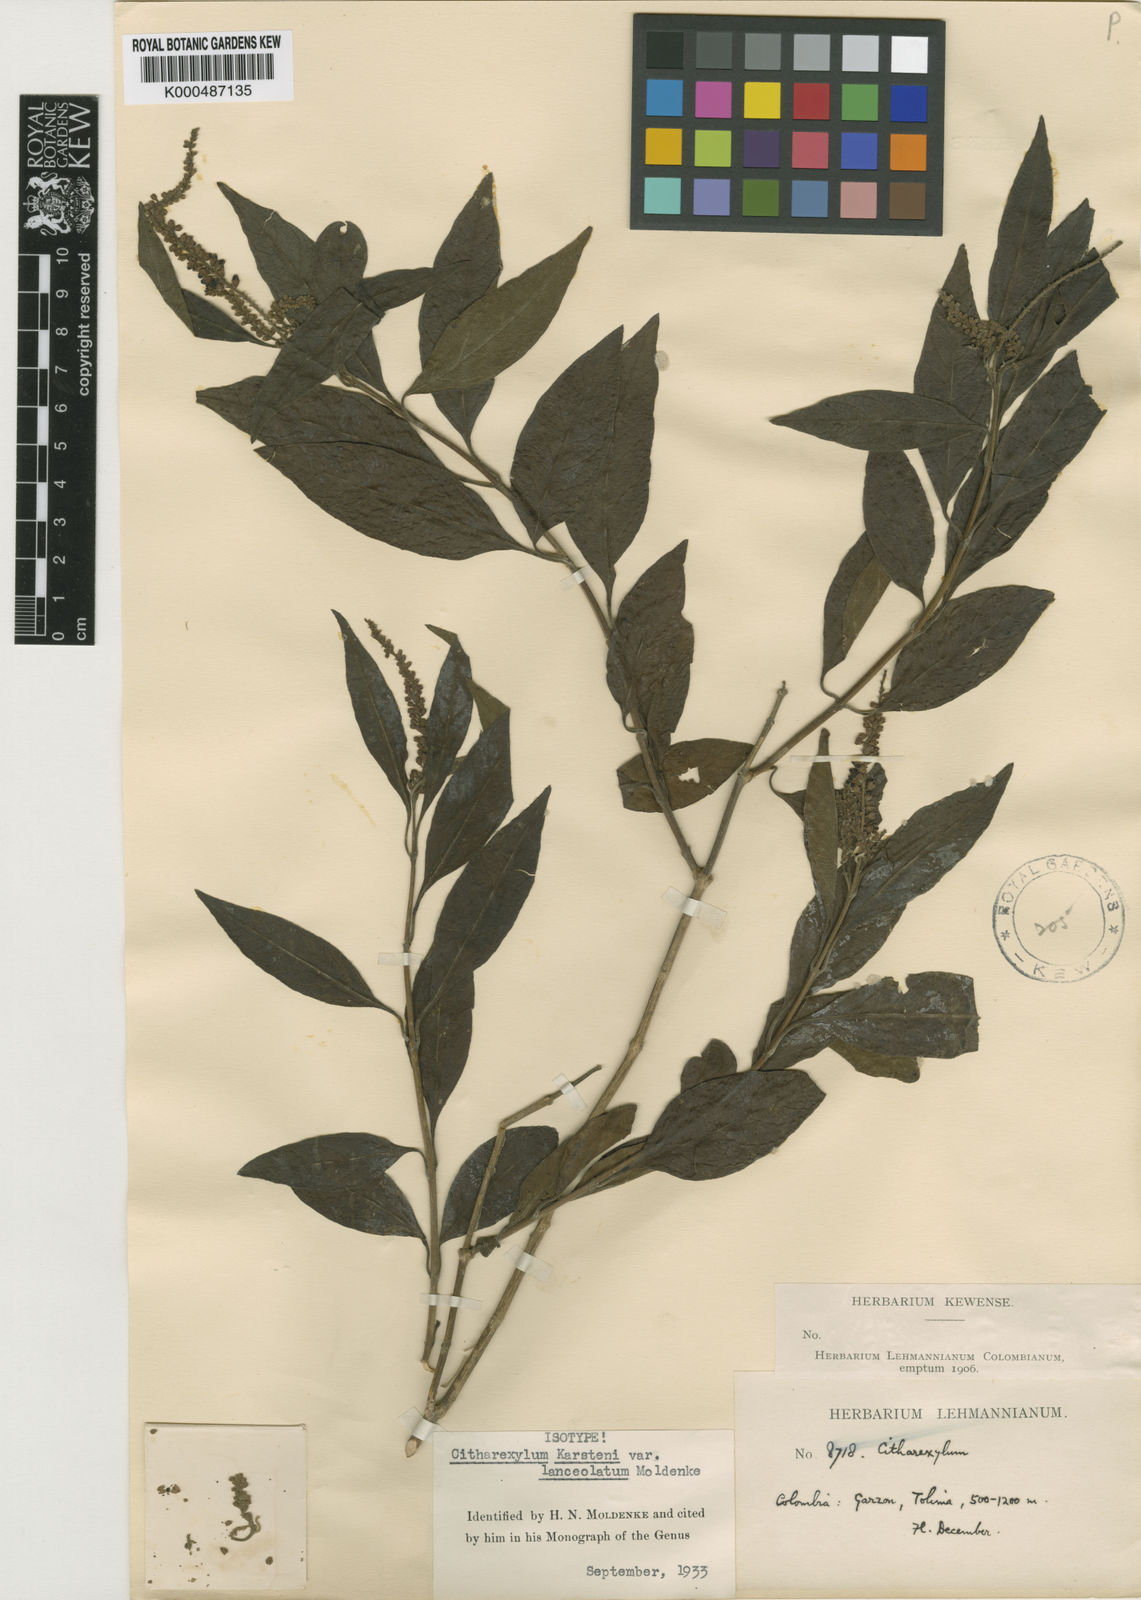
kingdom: Plantae
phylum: Tracheophyta
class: Magnoliopsida
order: Lamiales
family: Verbenaceae
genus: Citharexylum
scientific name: Citharexylum karstenii
